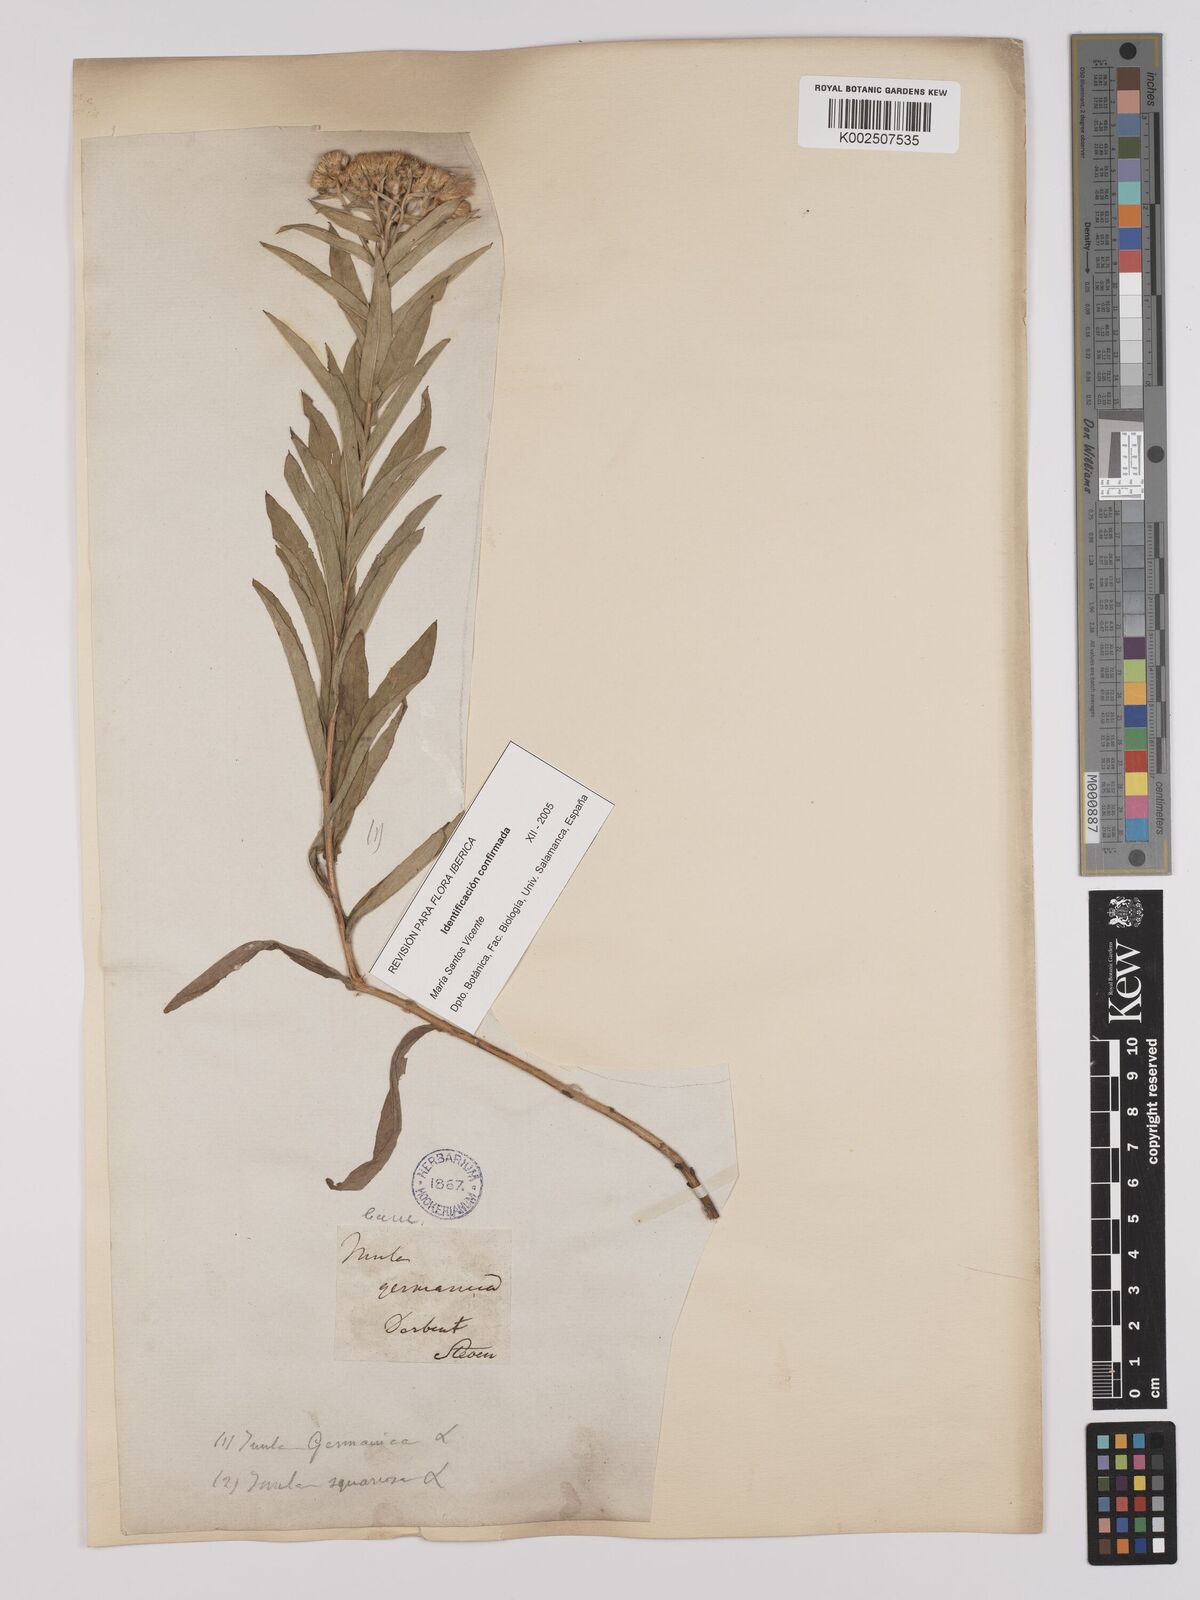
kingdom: Plantae
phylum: Tracheophyta
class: Magnoliopsida
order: Asterales
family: Asteraceae
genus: Pentanema
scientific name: Pentanema germanicum
